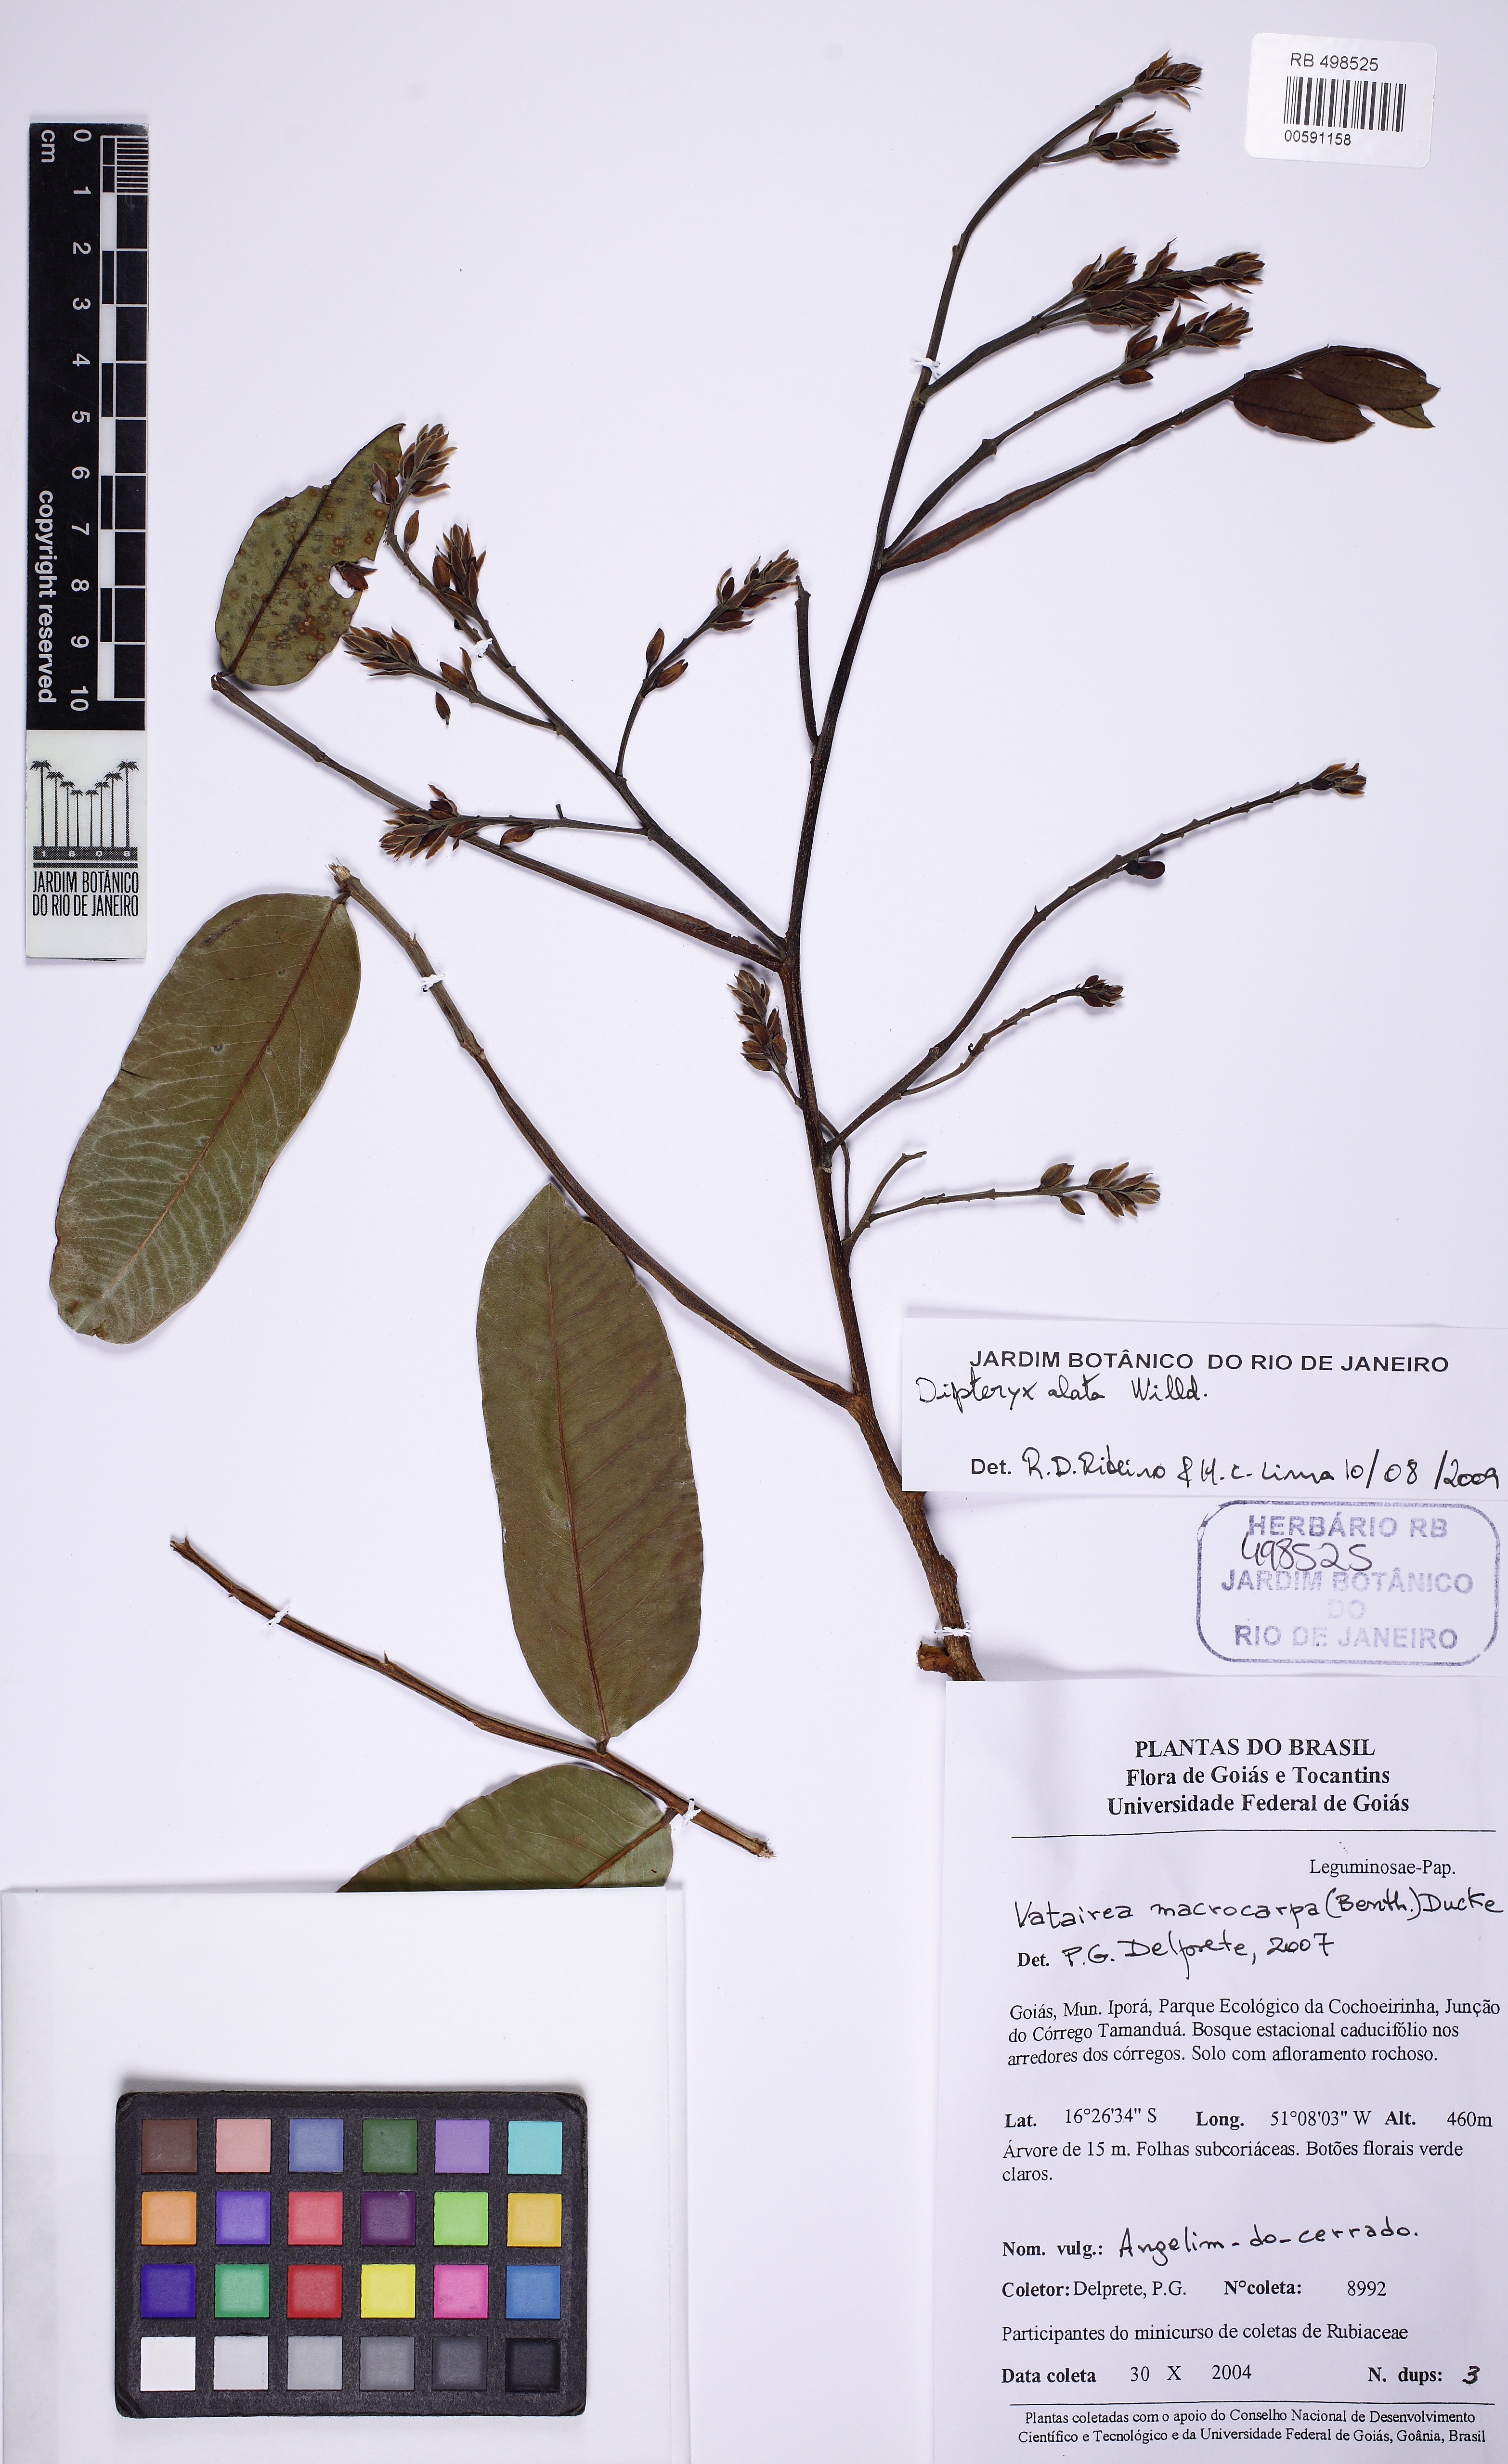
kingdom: Plantae
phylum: Tracheophyta
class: Magnoliopsida
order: Fabales
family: Fabaceae
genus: Dipteryx
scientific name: Dipteryx alata
